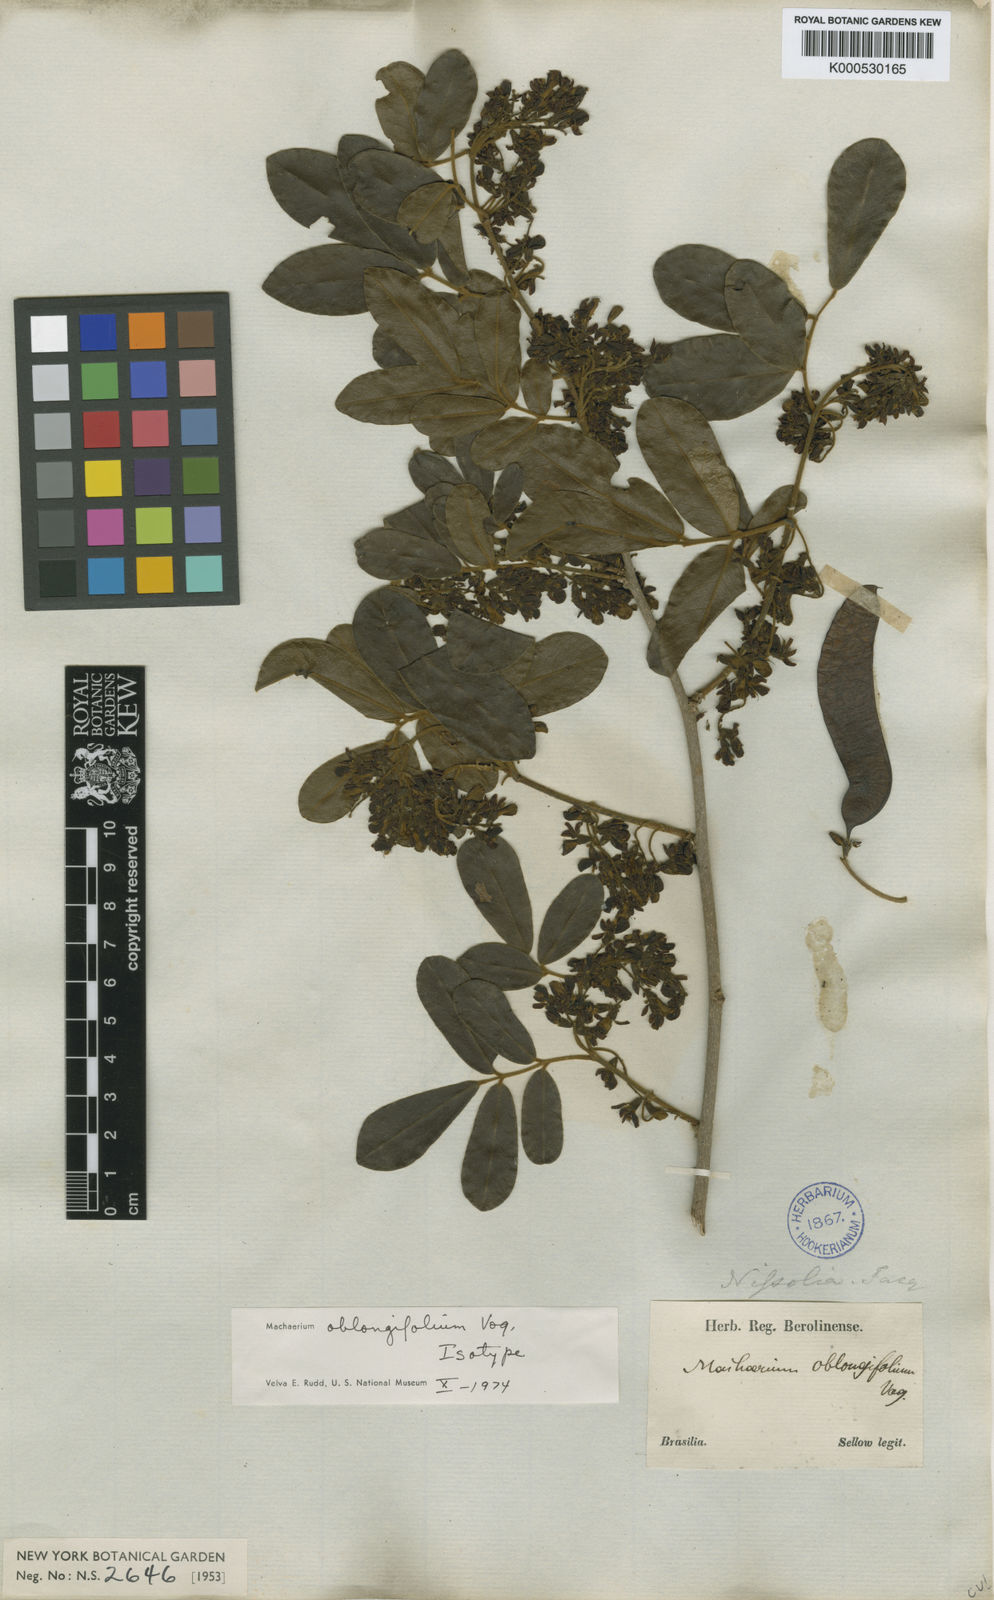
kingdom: Plantae
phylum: Tracheophyta
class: Magnoliopsida
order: Fabales
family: Fabaceae
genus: Machaerium
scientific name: Machaerium oblongifolium
